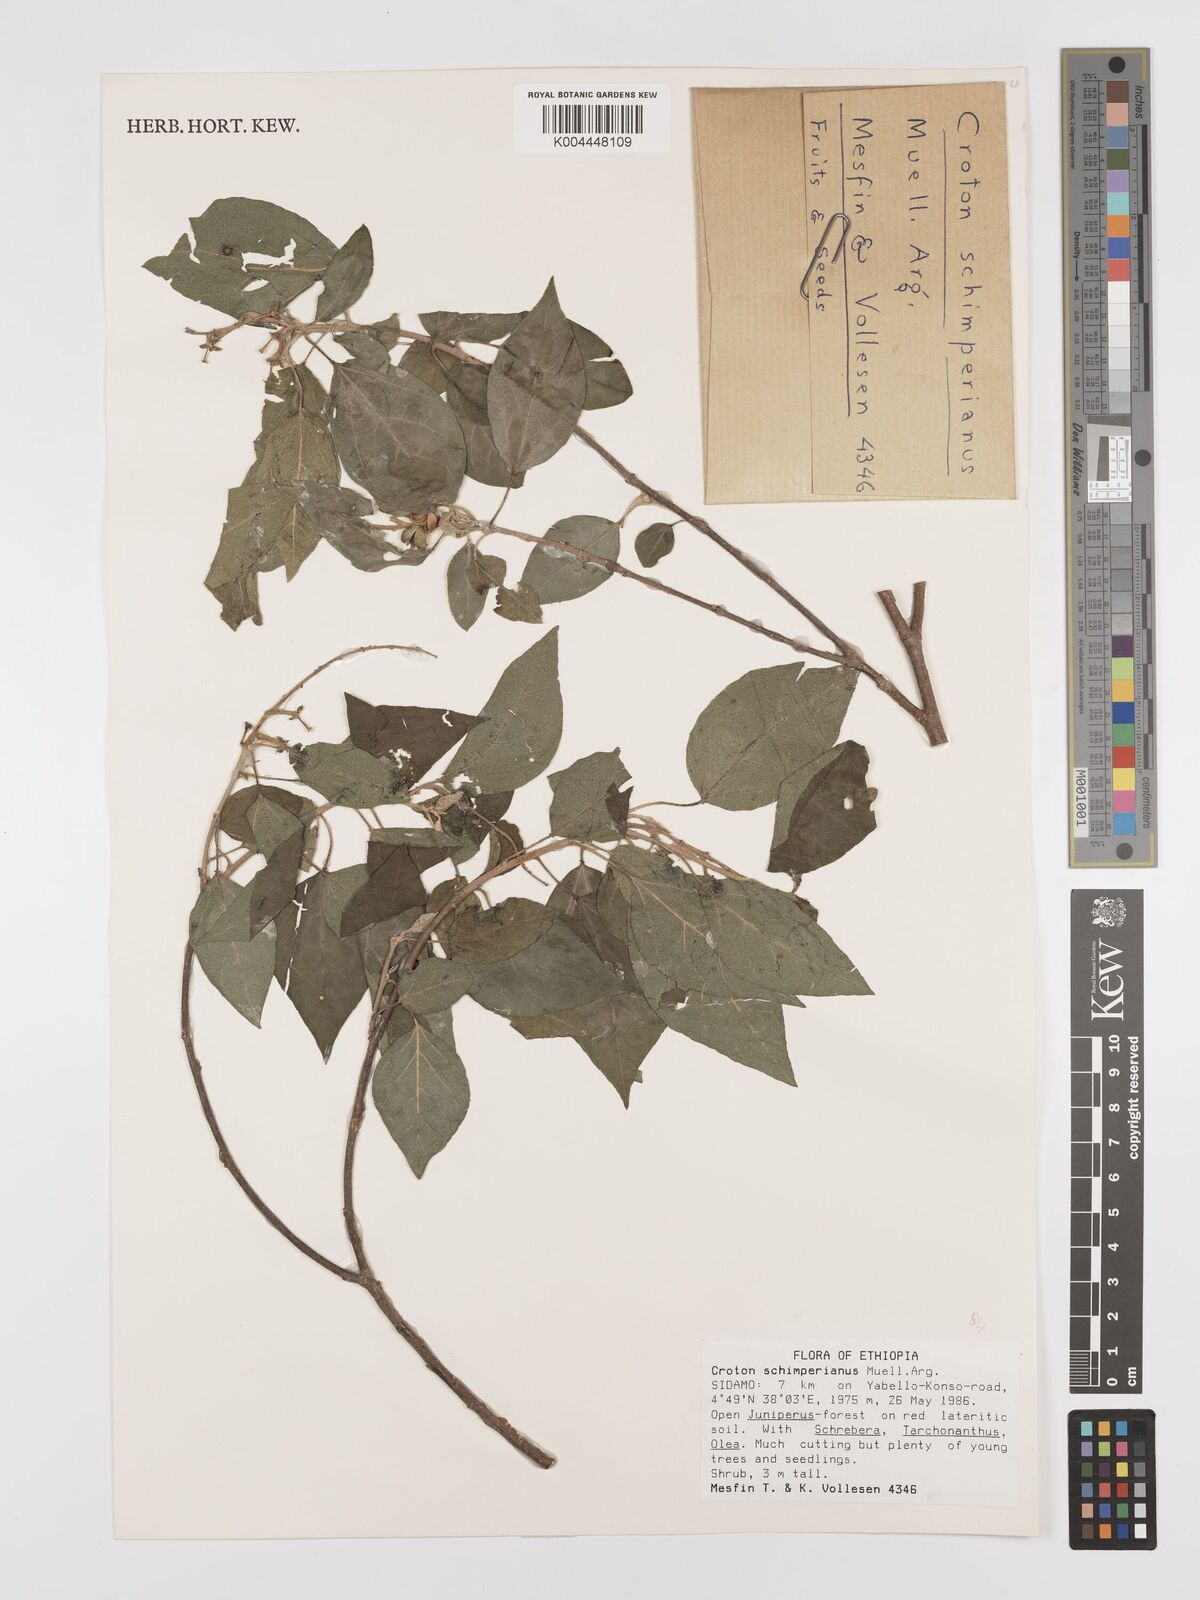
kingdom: Plantae
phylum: Tracheophyta
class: Magnoliopsida
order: Malpighiales
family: Euphorbiaceae
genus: Croton
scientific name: Croton schimperianus
